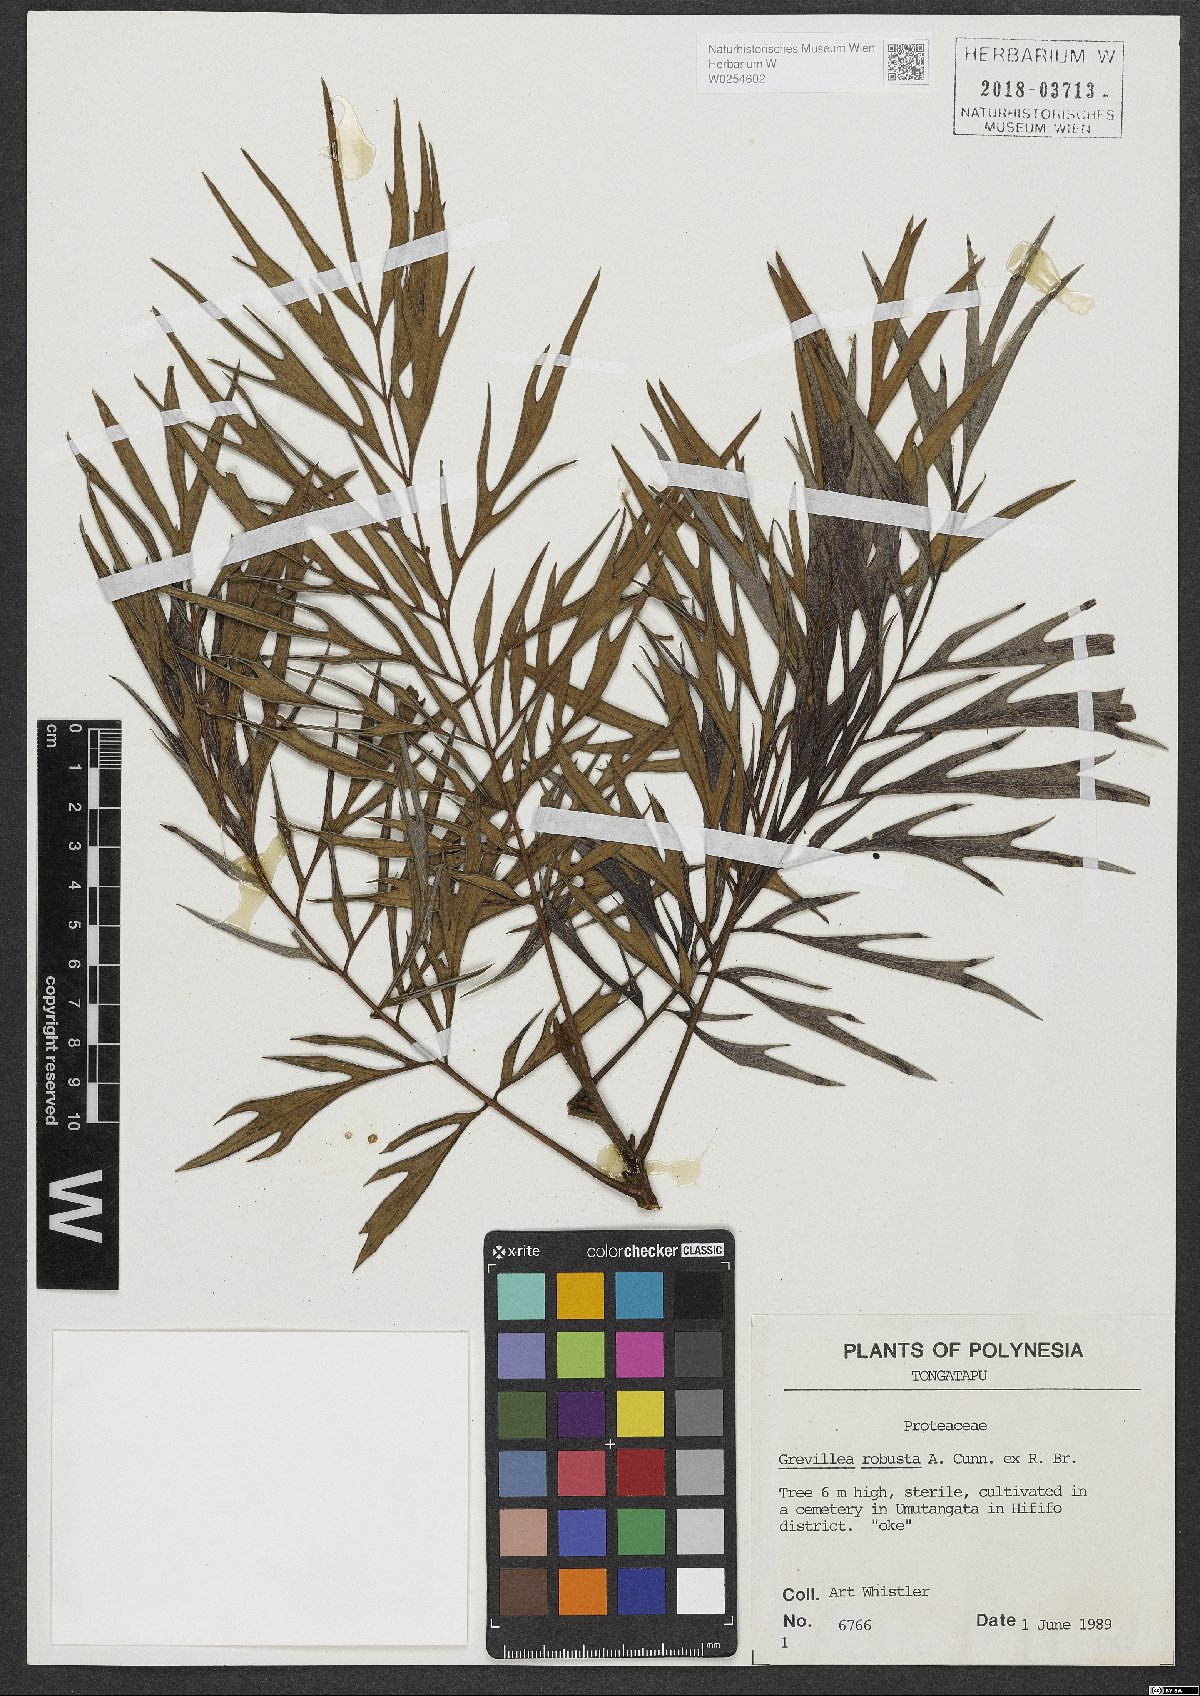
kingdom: Plantae
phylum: Tracheophyta
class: Magnoliopsida
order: Proteales
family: Proteaceae
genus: Grevillea
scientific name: Grevillea robusta
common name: Silkoak
